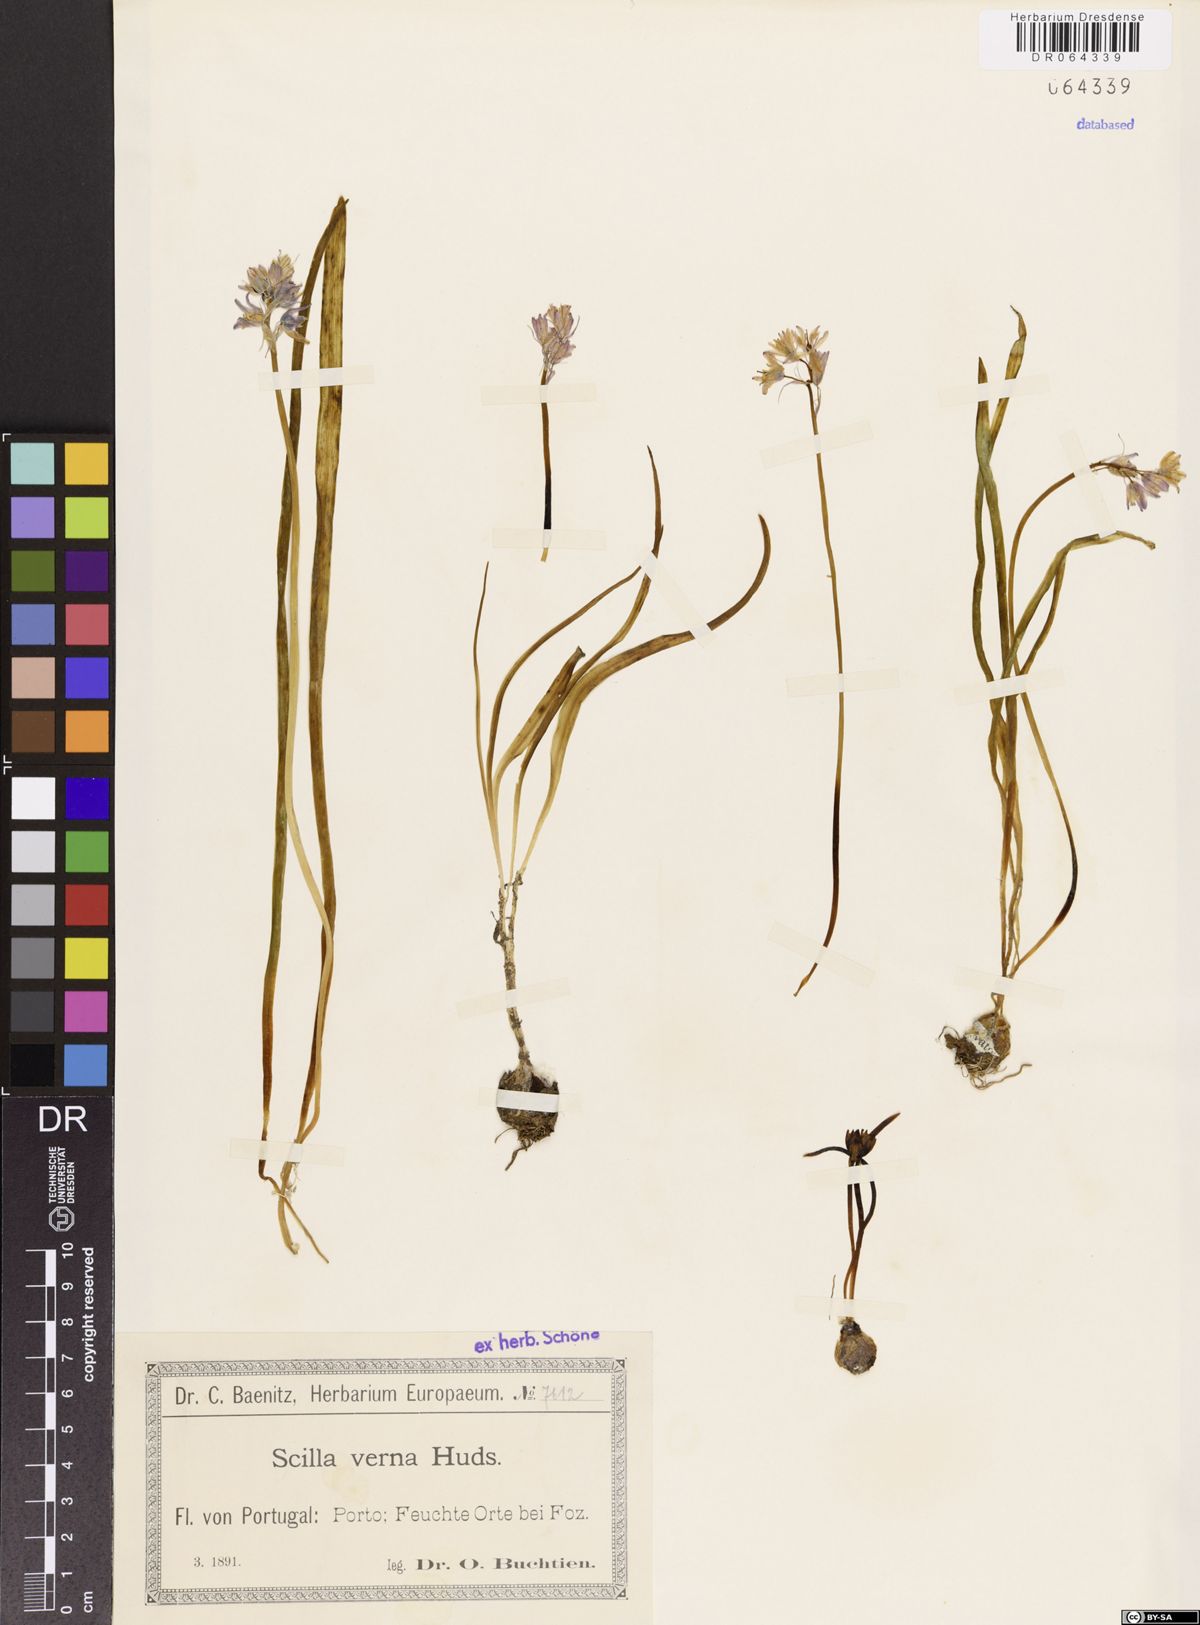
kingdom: Plantae
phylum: Tracheophyta
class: Liliopsida
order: Asparagales
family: Asparagaceae
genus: Scilla
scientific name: Scilla verna
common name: Spring squill
